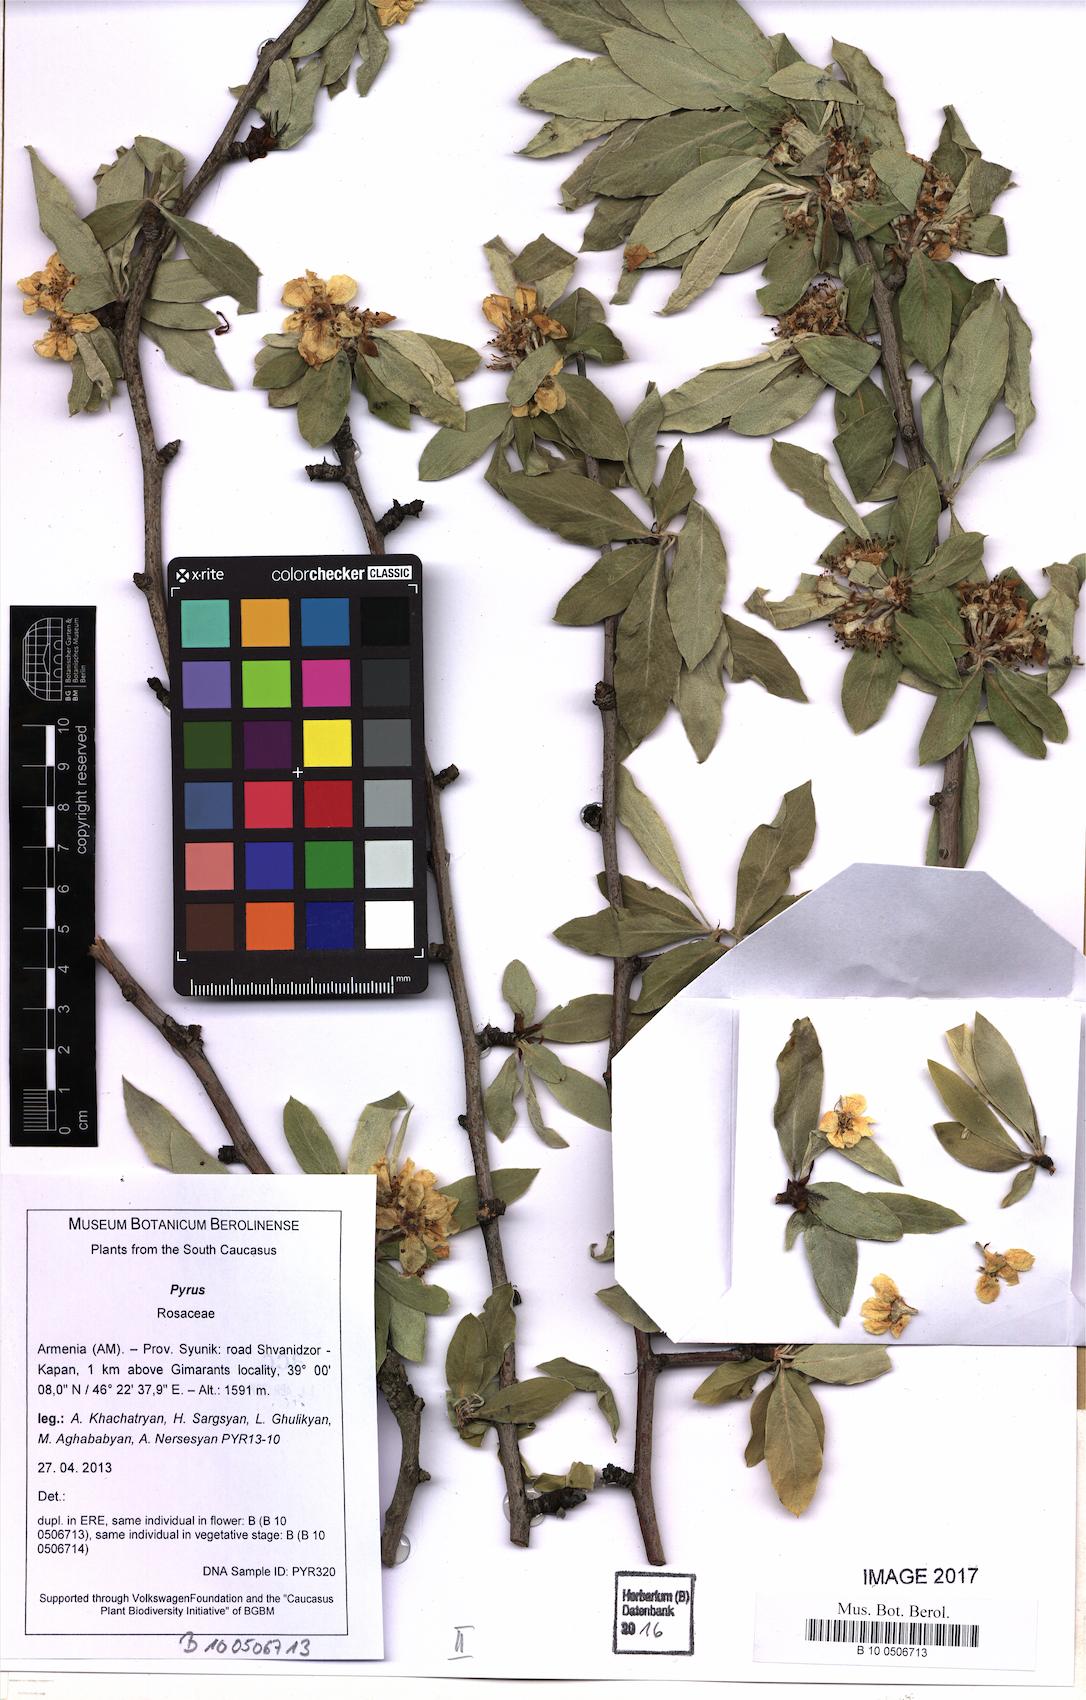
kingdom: Plantae
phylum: Tracheophyta
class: Magnoliopsida
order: Rosales
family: Rosaceae
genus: Pyrus
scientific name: Pyrus salicifolia
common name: Willow-leaved pear
